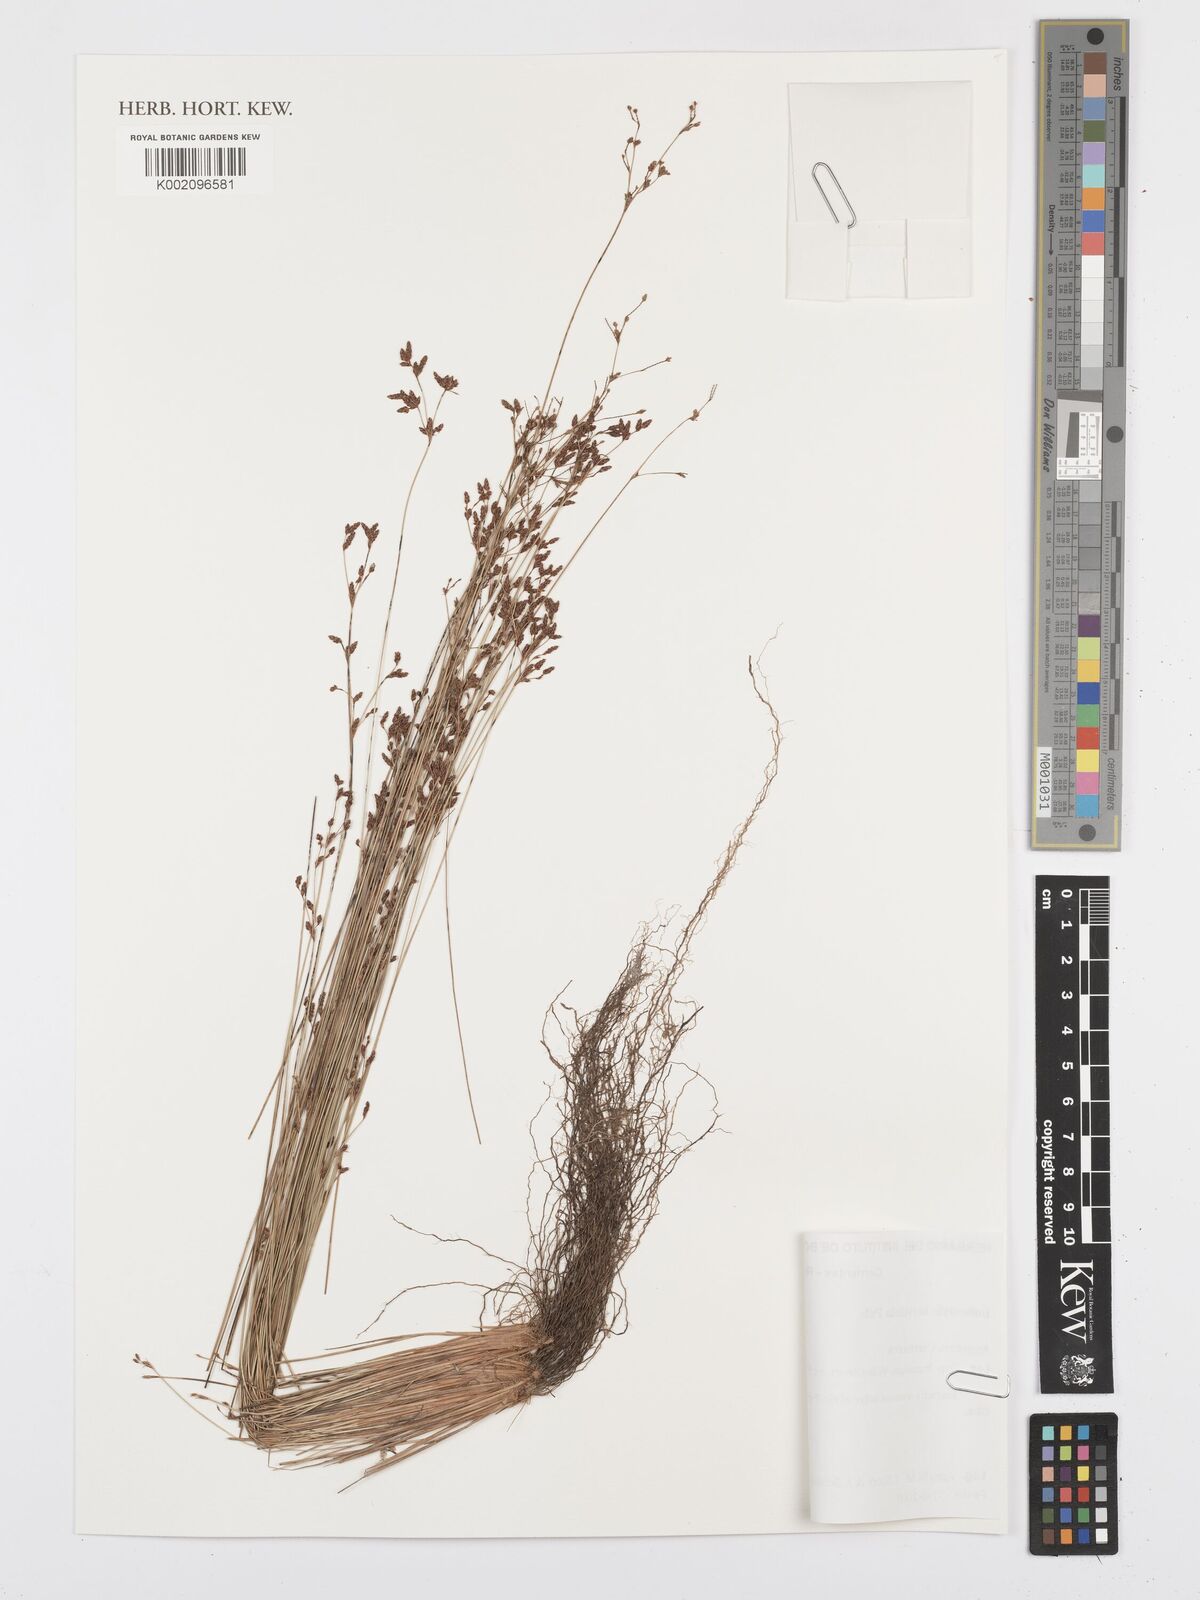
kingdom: Plantae
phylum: Tracheophyta
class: Liliopsida
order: Poales
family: Cyperaceae
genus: Bulbostylis
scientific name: Bulbostylis brevifolia
